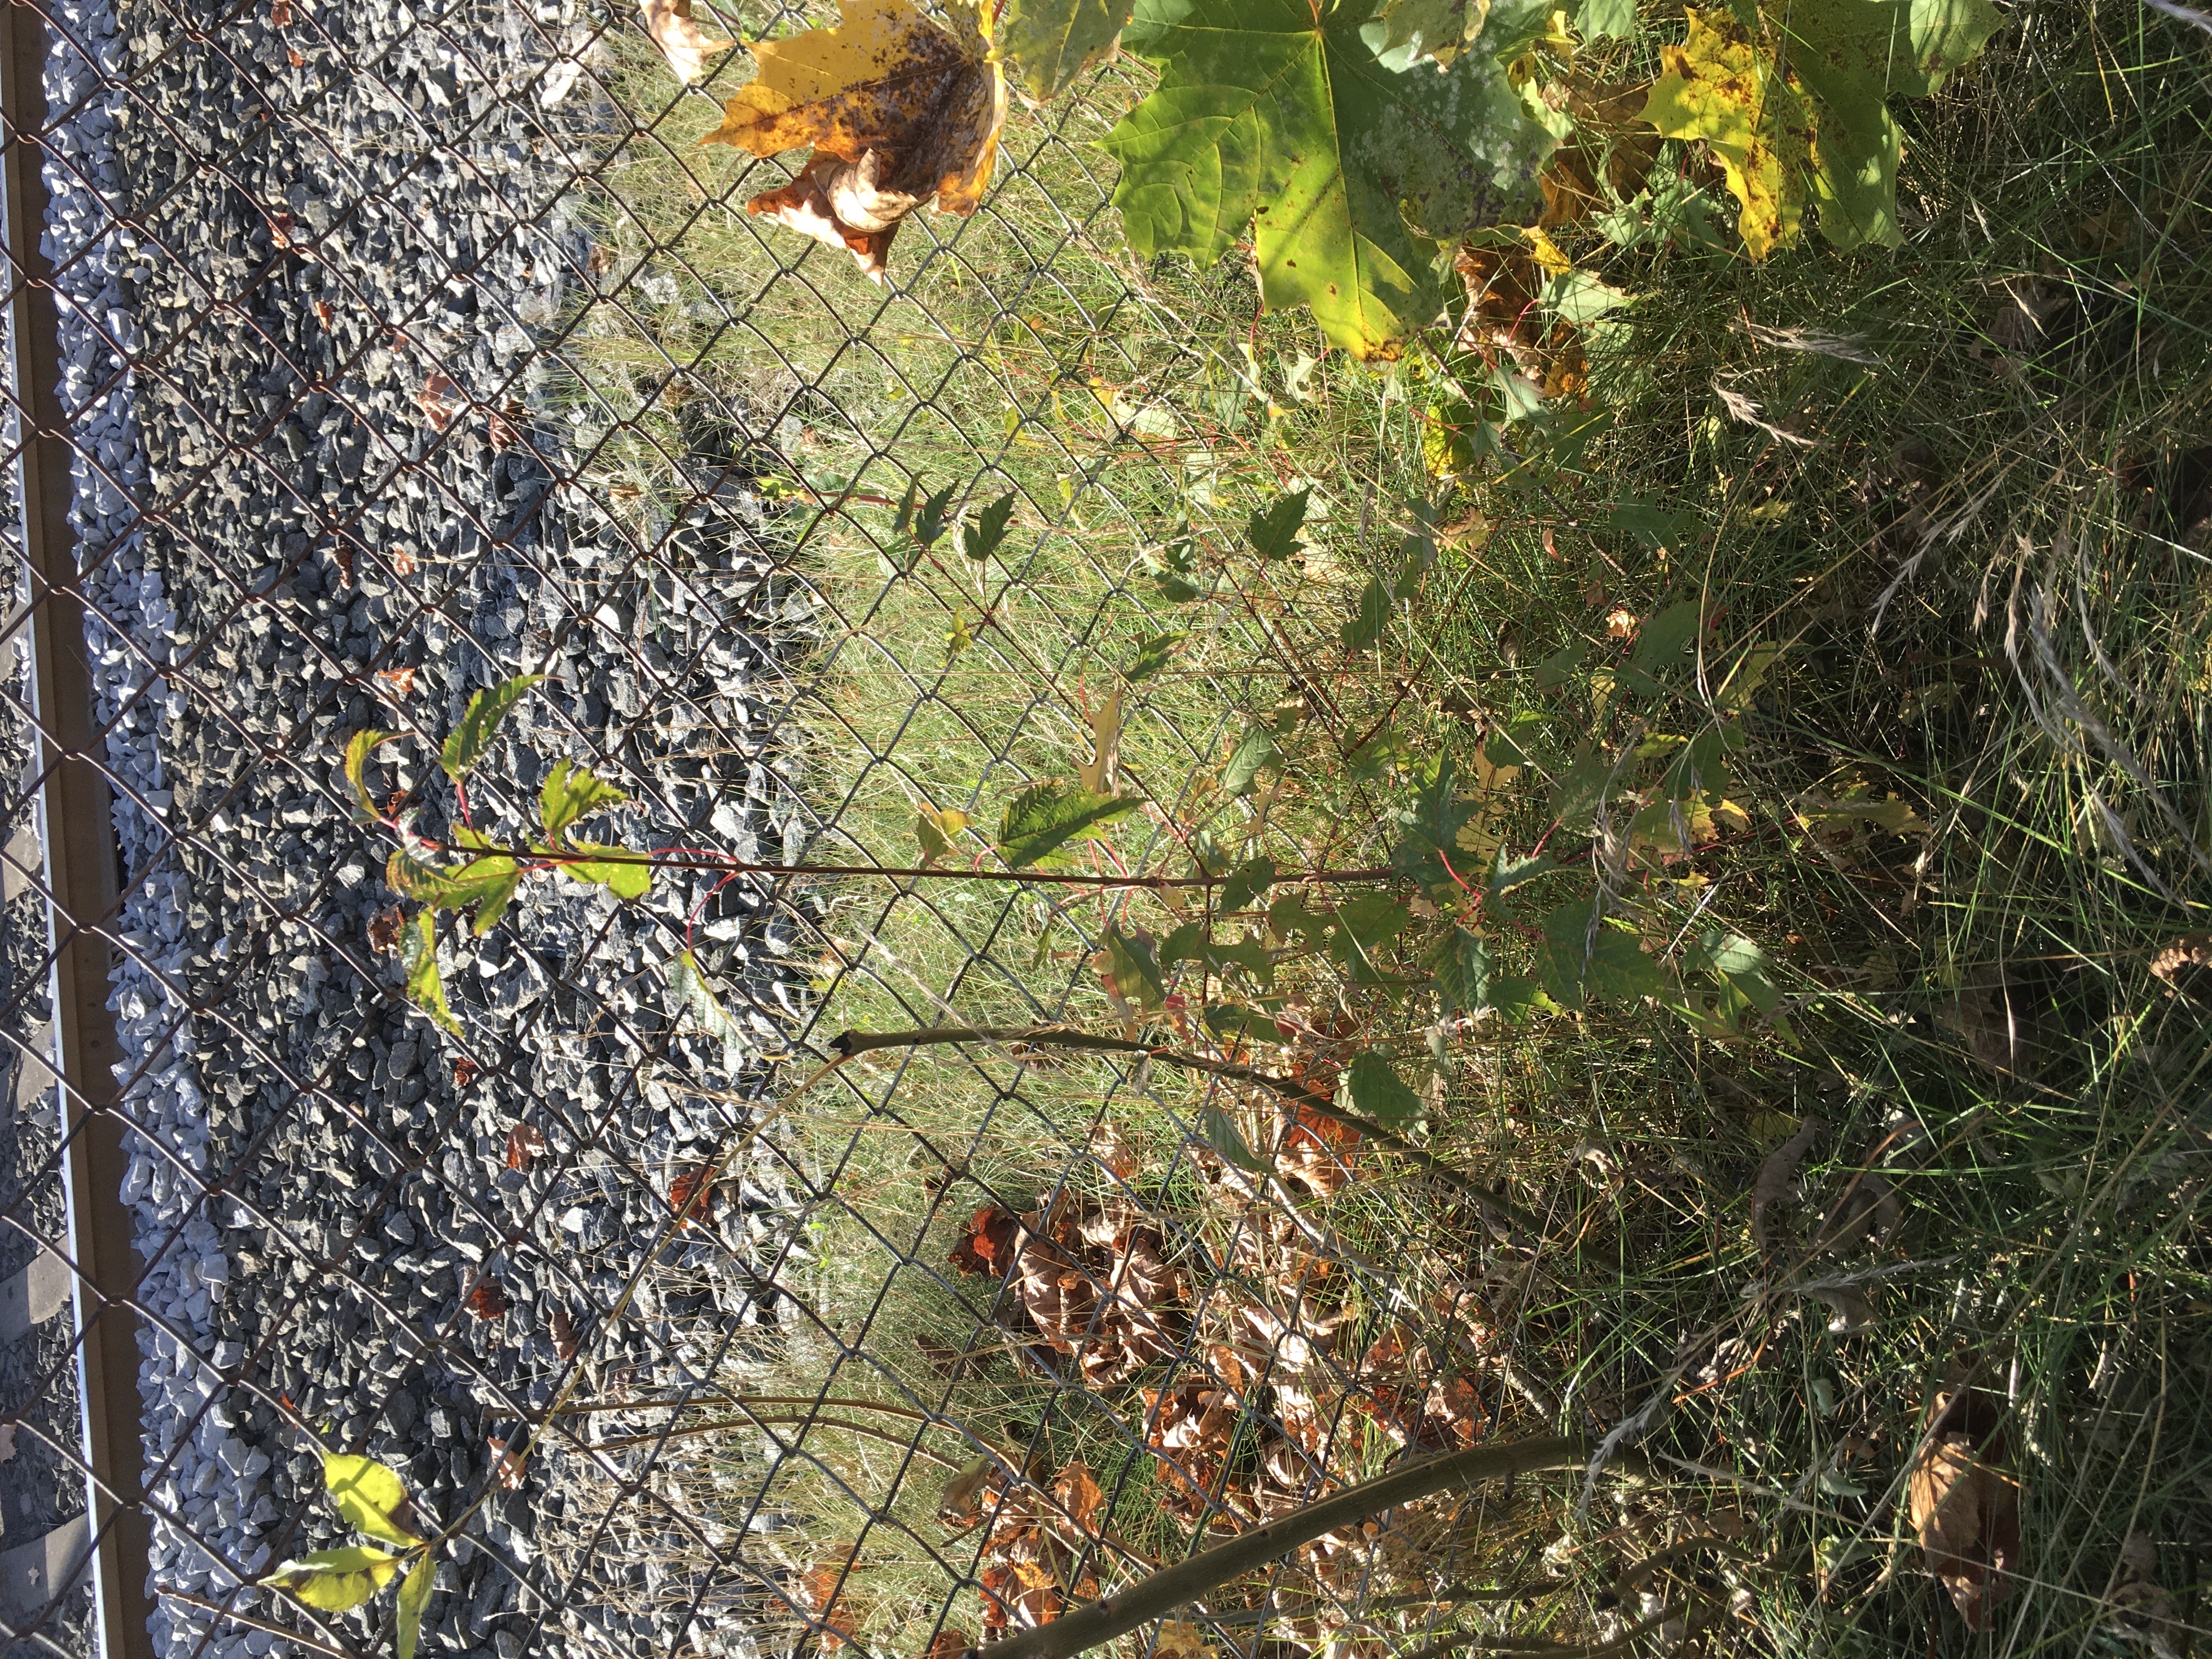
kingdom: Plantae
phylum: Tracheophyta
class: Magnoliopsida
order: Sapindales
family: Sapindaceae
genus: Acer
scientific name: Acer tataricum
